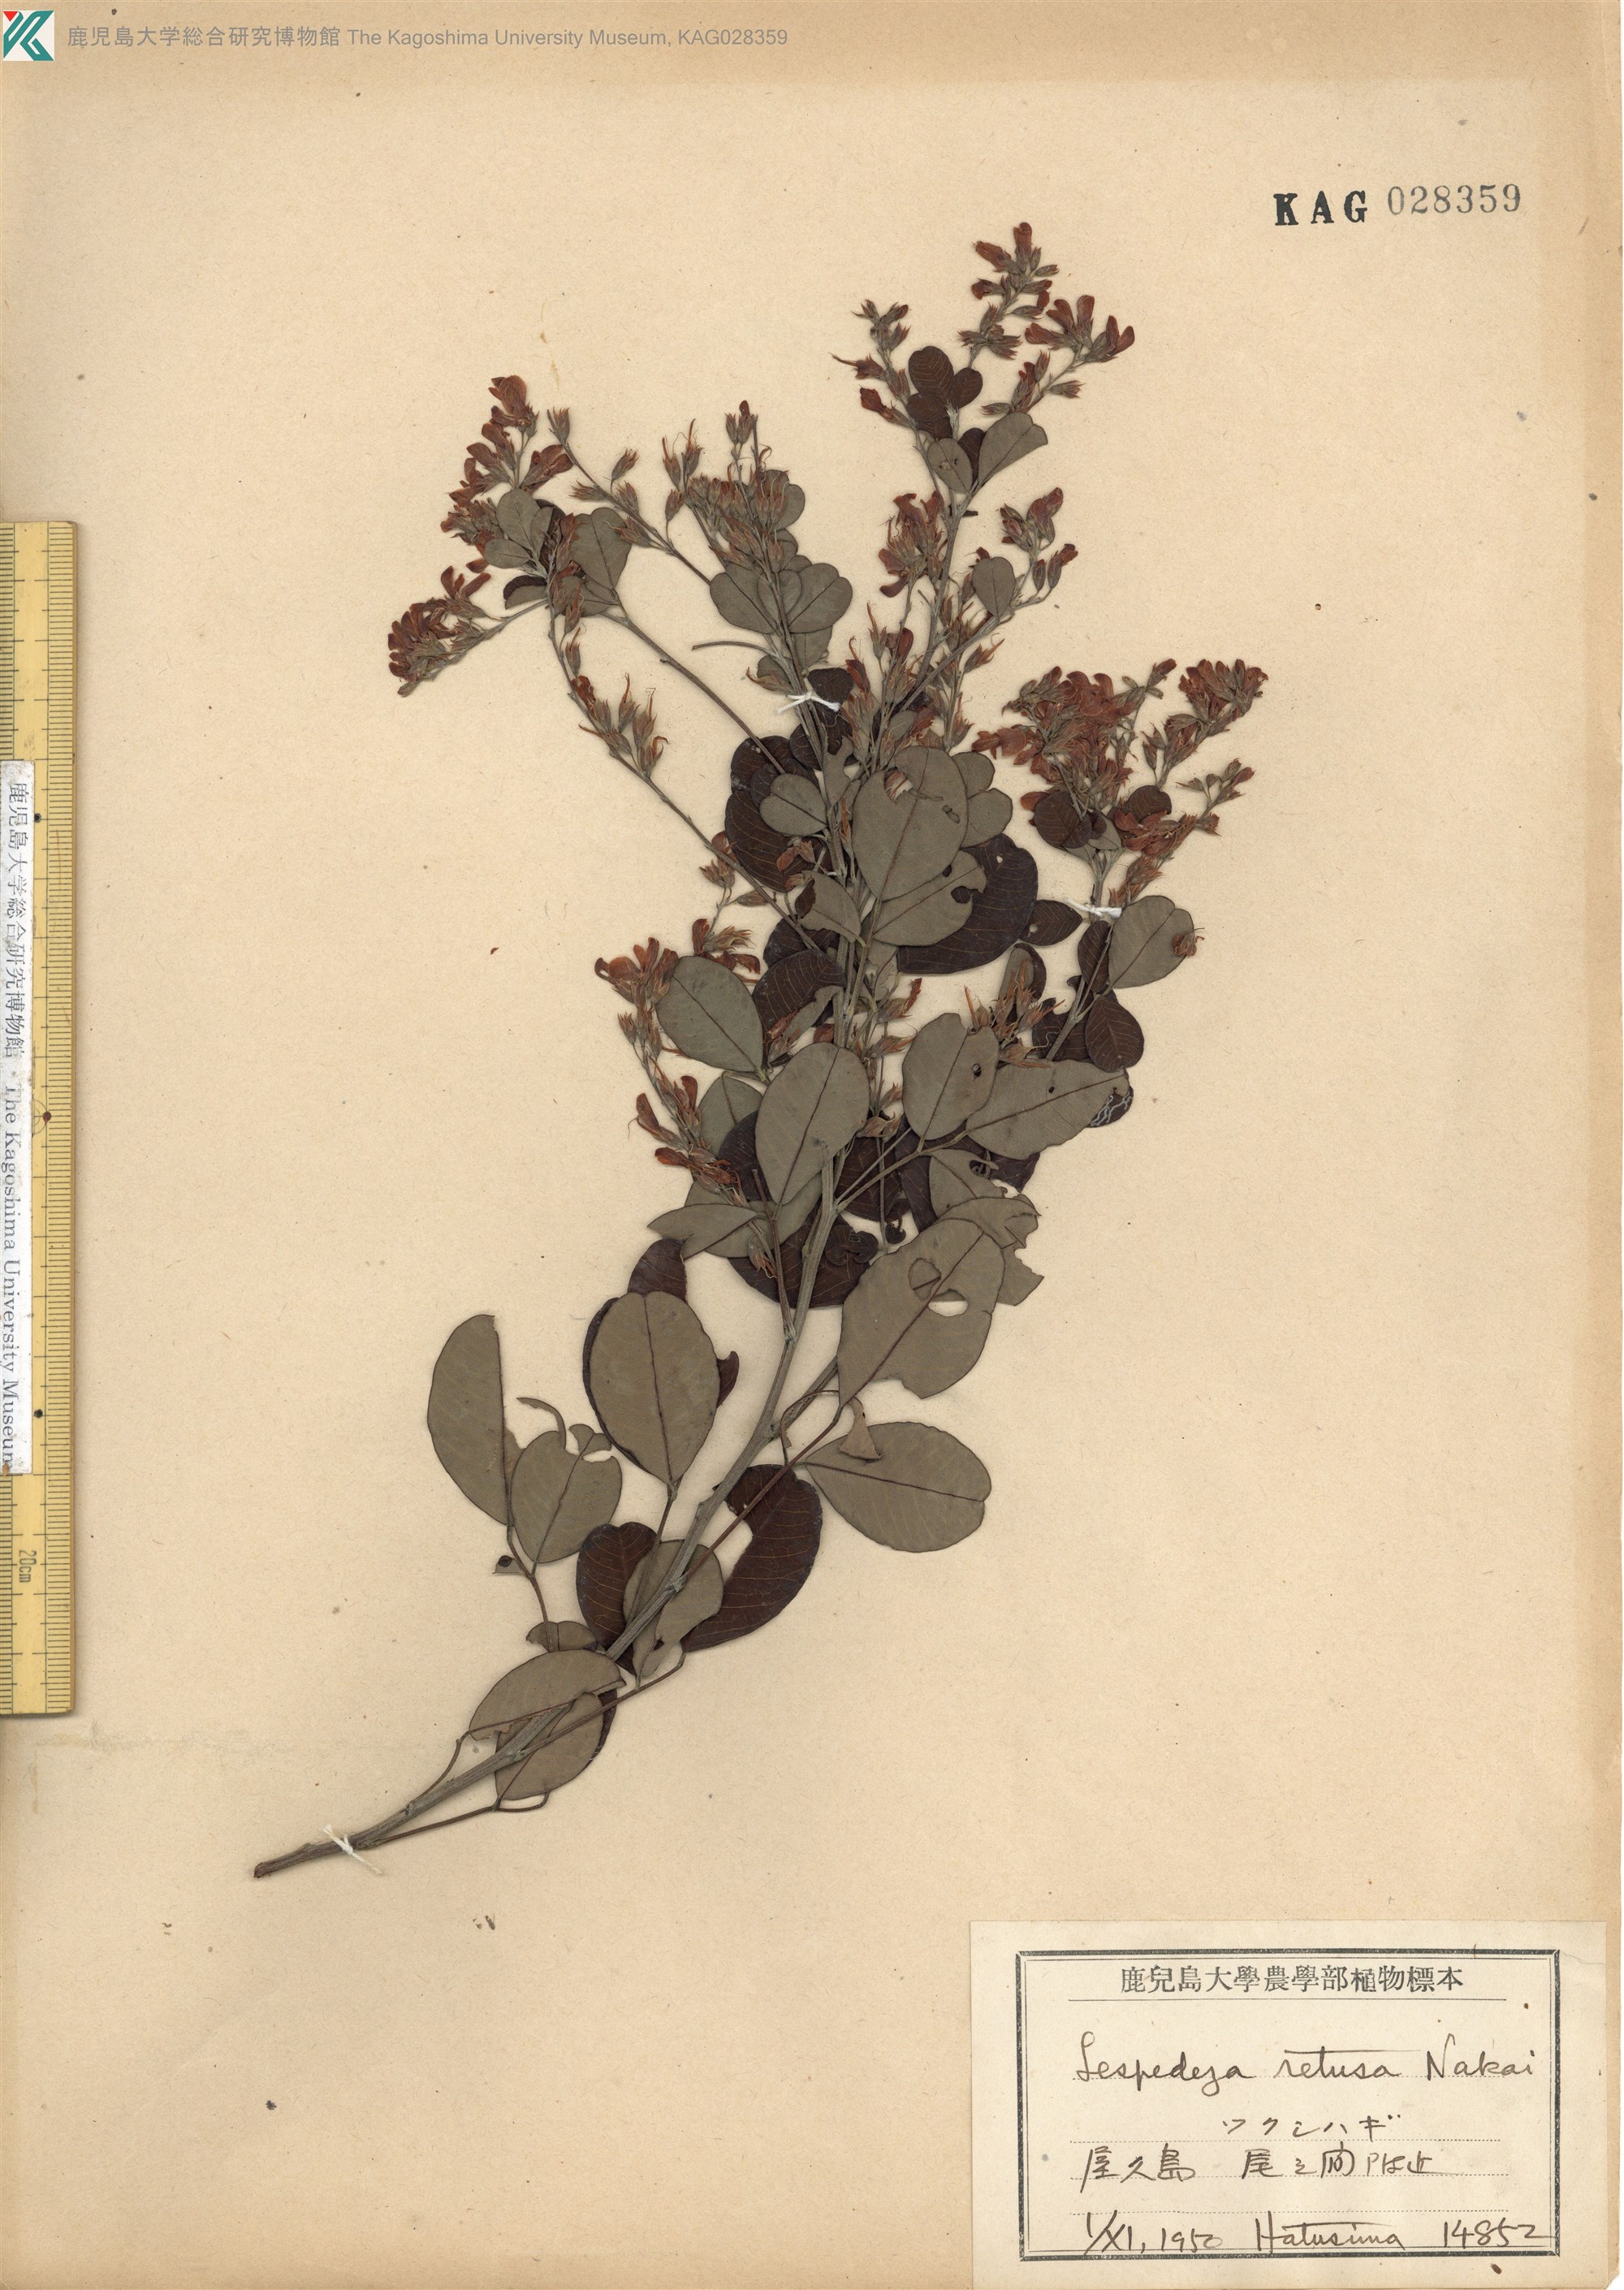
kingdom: Plantae
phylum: Tracheophyta
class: Magnoliopsida
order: Fabales
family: Fabaceae
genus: Lespedeza
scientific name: Lespedeza homoloba
